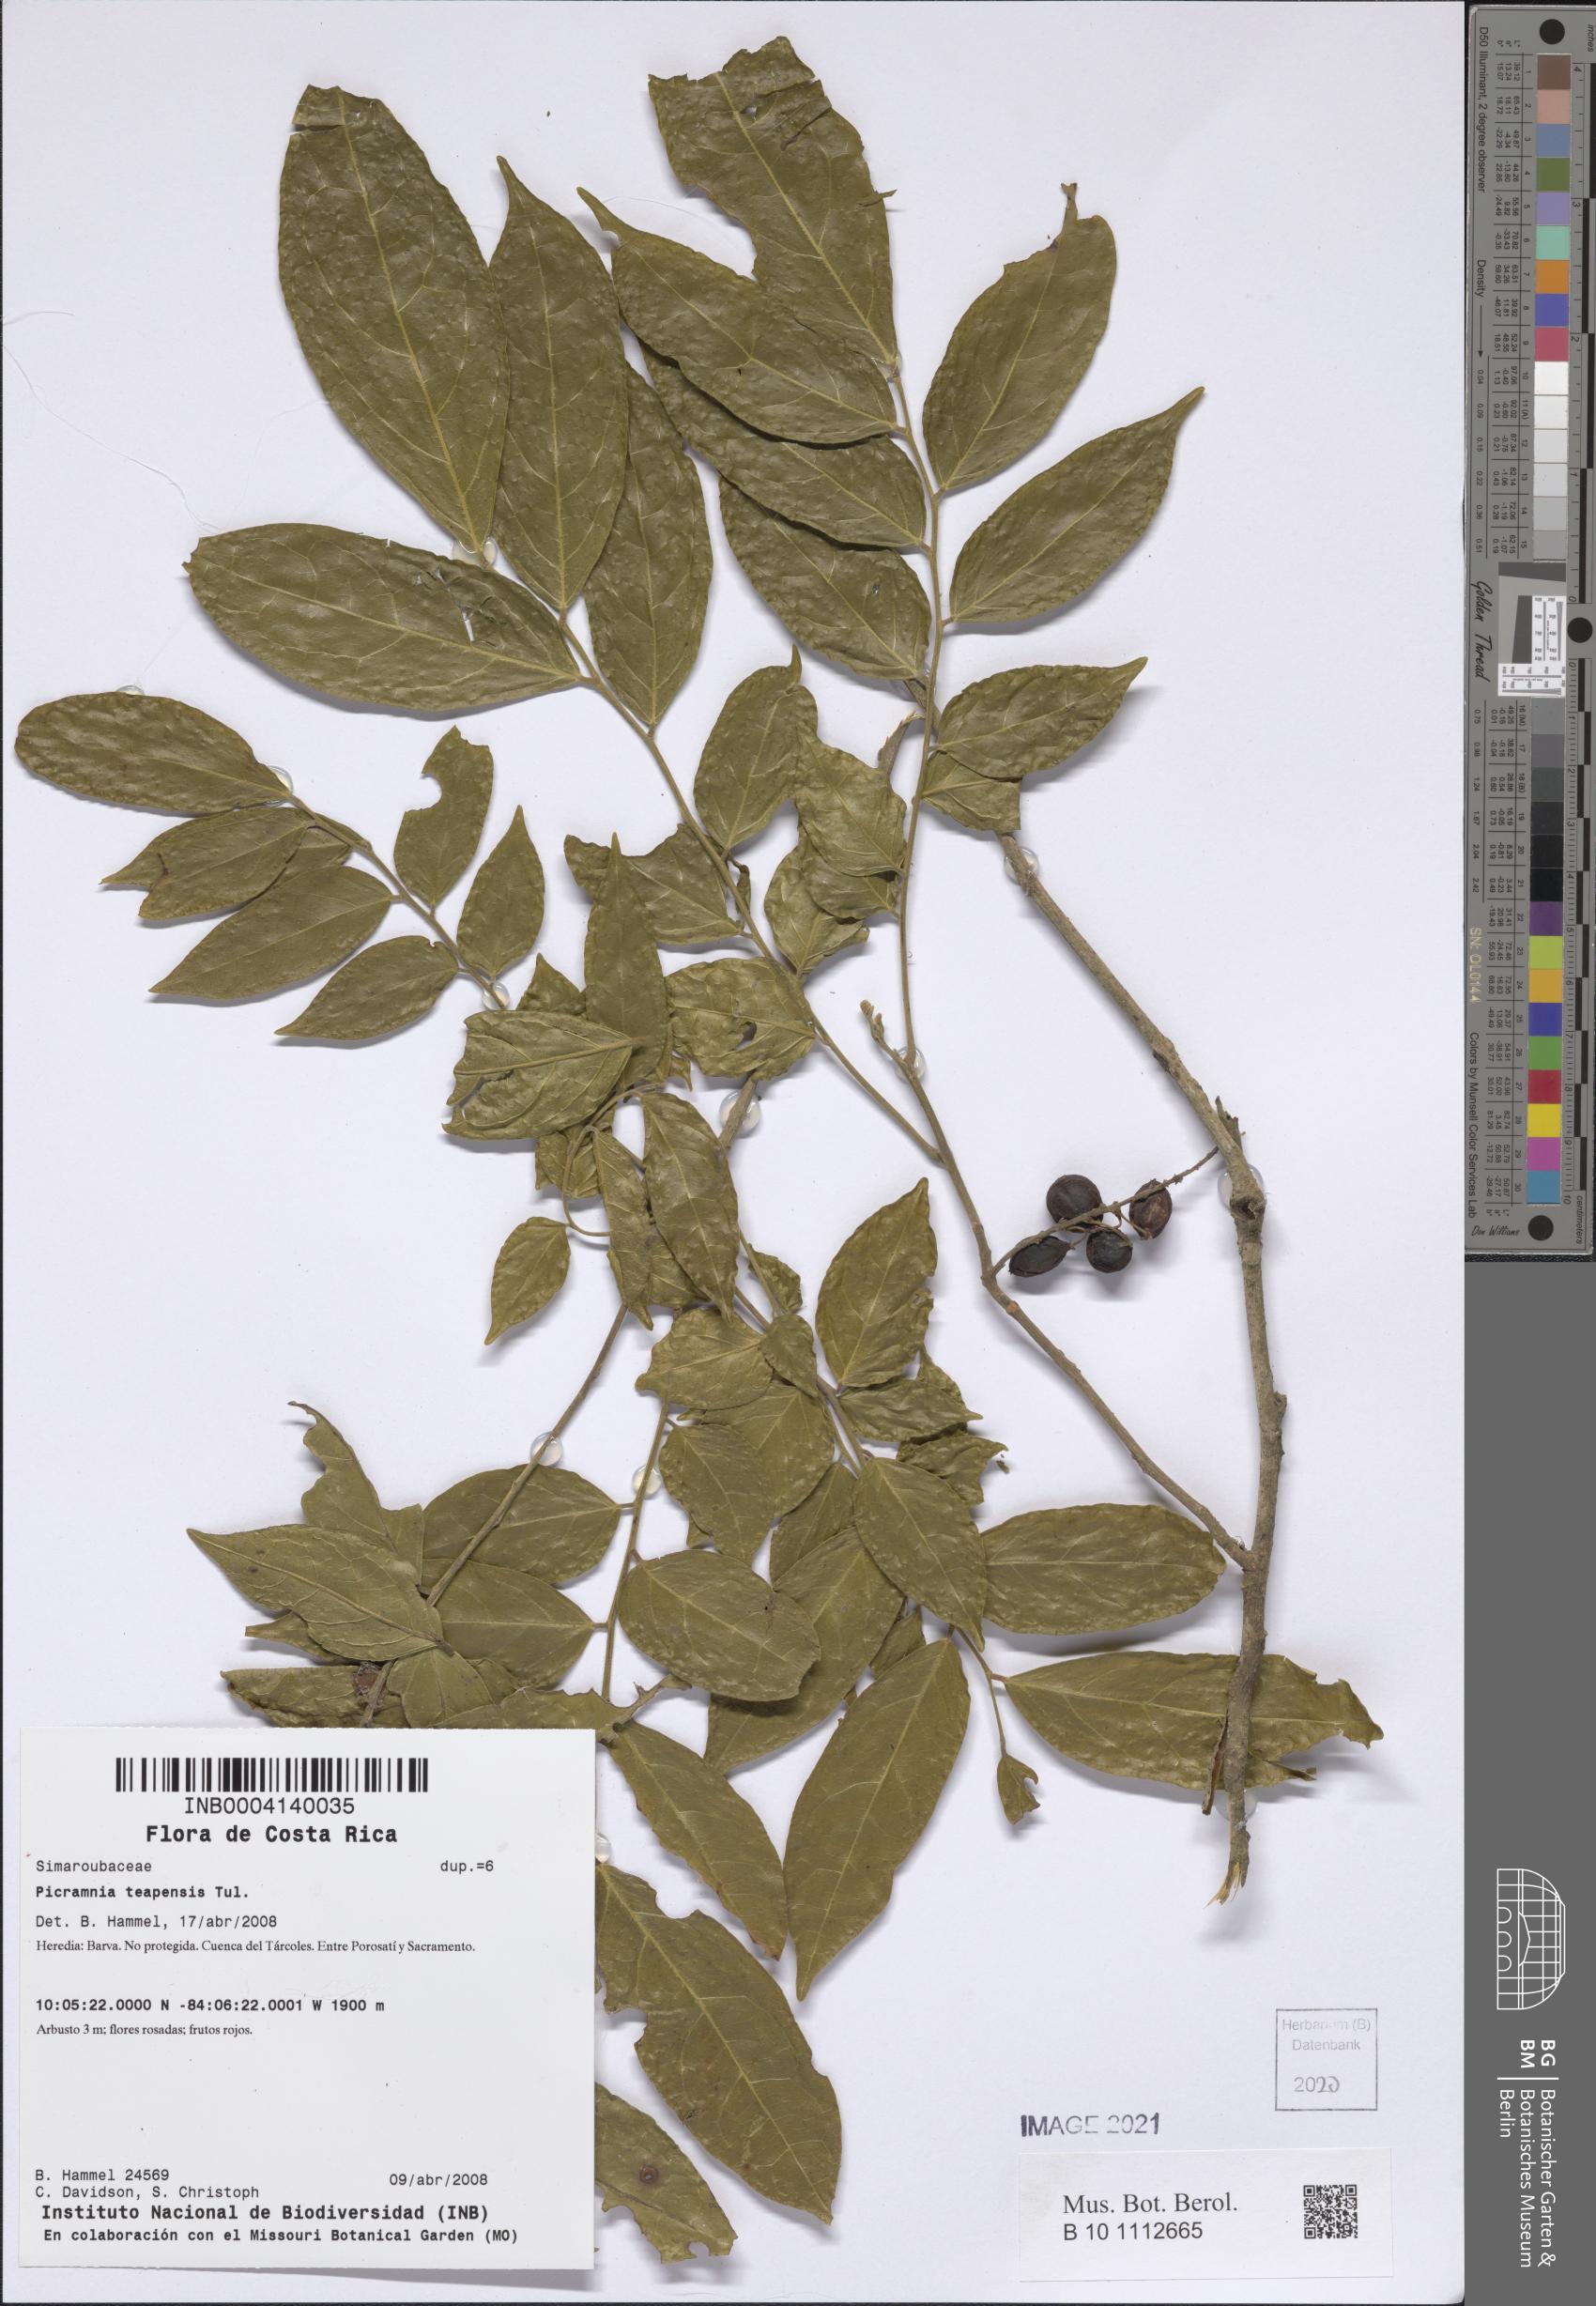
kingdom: Plantae
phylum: Tracheophyta
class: Magnoliopsida
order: Picramniales
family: Picramniaceae
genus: Picramnia
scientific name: Picramnia teapensis
